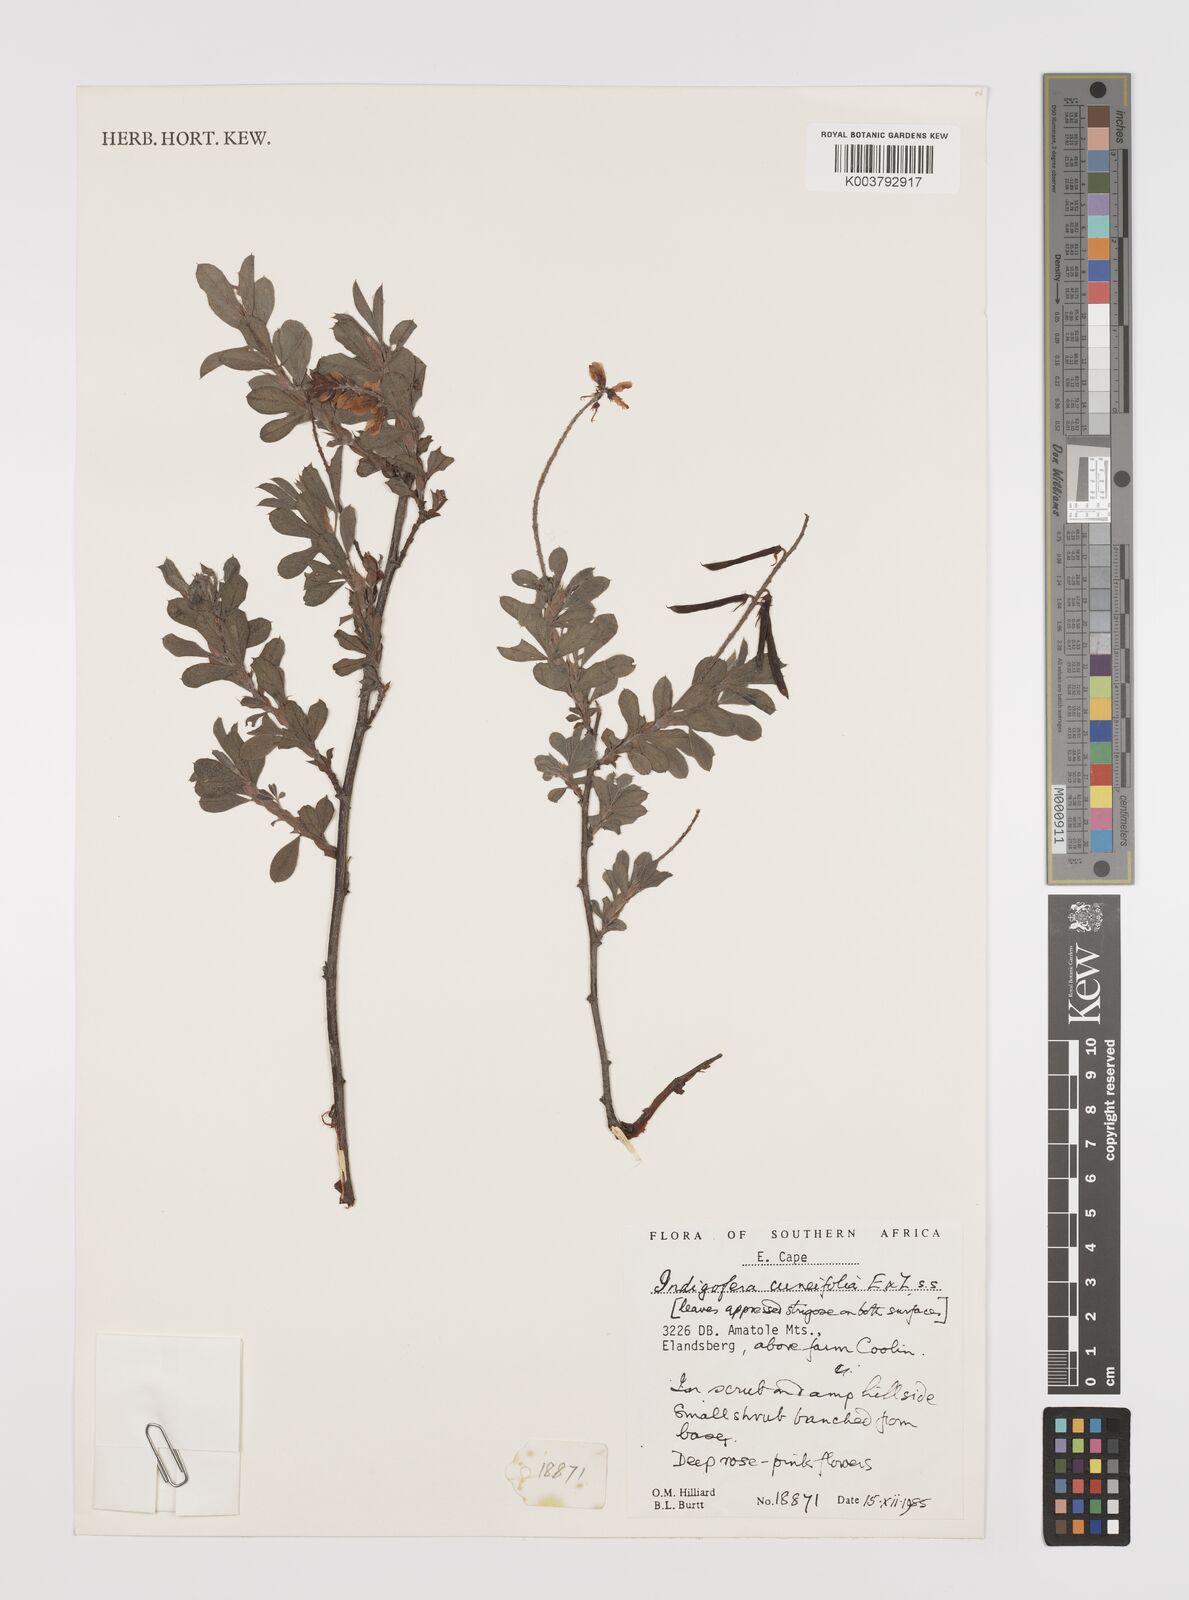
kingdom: Plantae
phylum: Tracheophyta
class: Magnoliopsida
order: Fabales
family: Fabaceae
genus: Indigofera
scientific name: Indigofera cuneifolia
